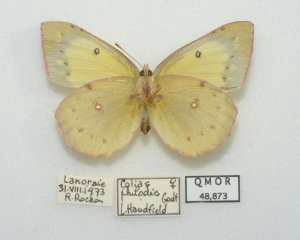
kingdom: Animalia
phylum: Arthropoda
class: Insecta
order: Lepidoptera
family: Pieridae
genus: Colias
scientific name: Colias philodice
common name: Clouded Sulphur
